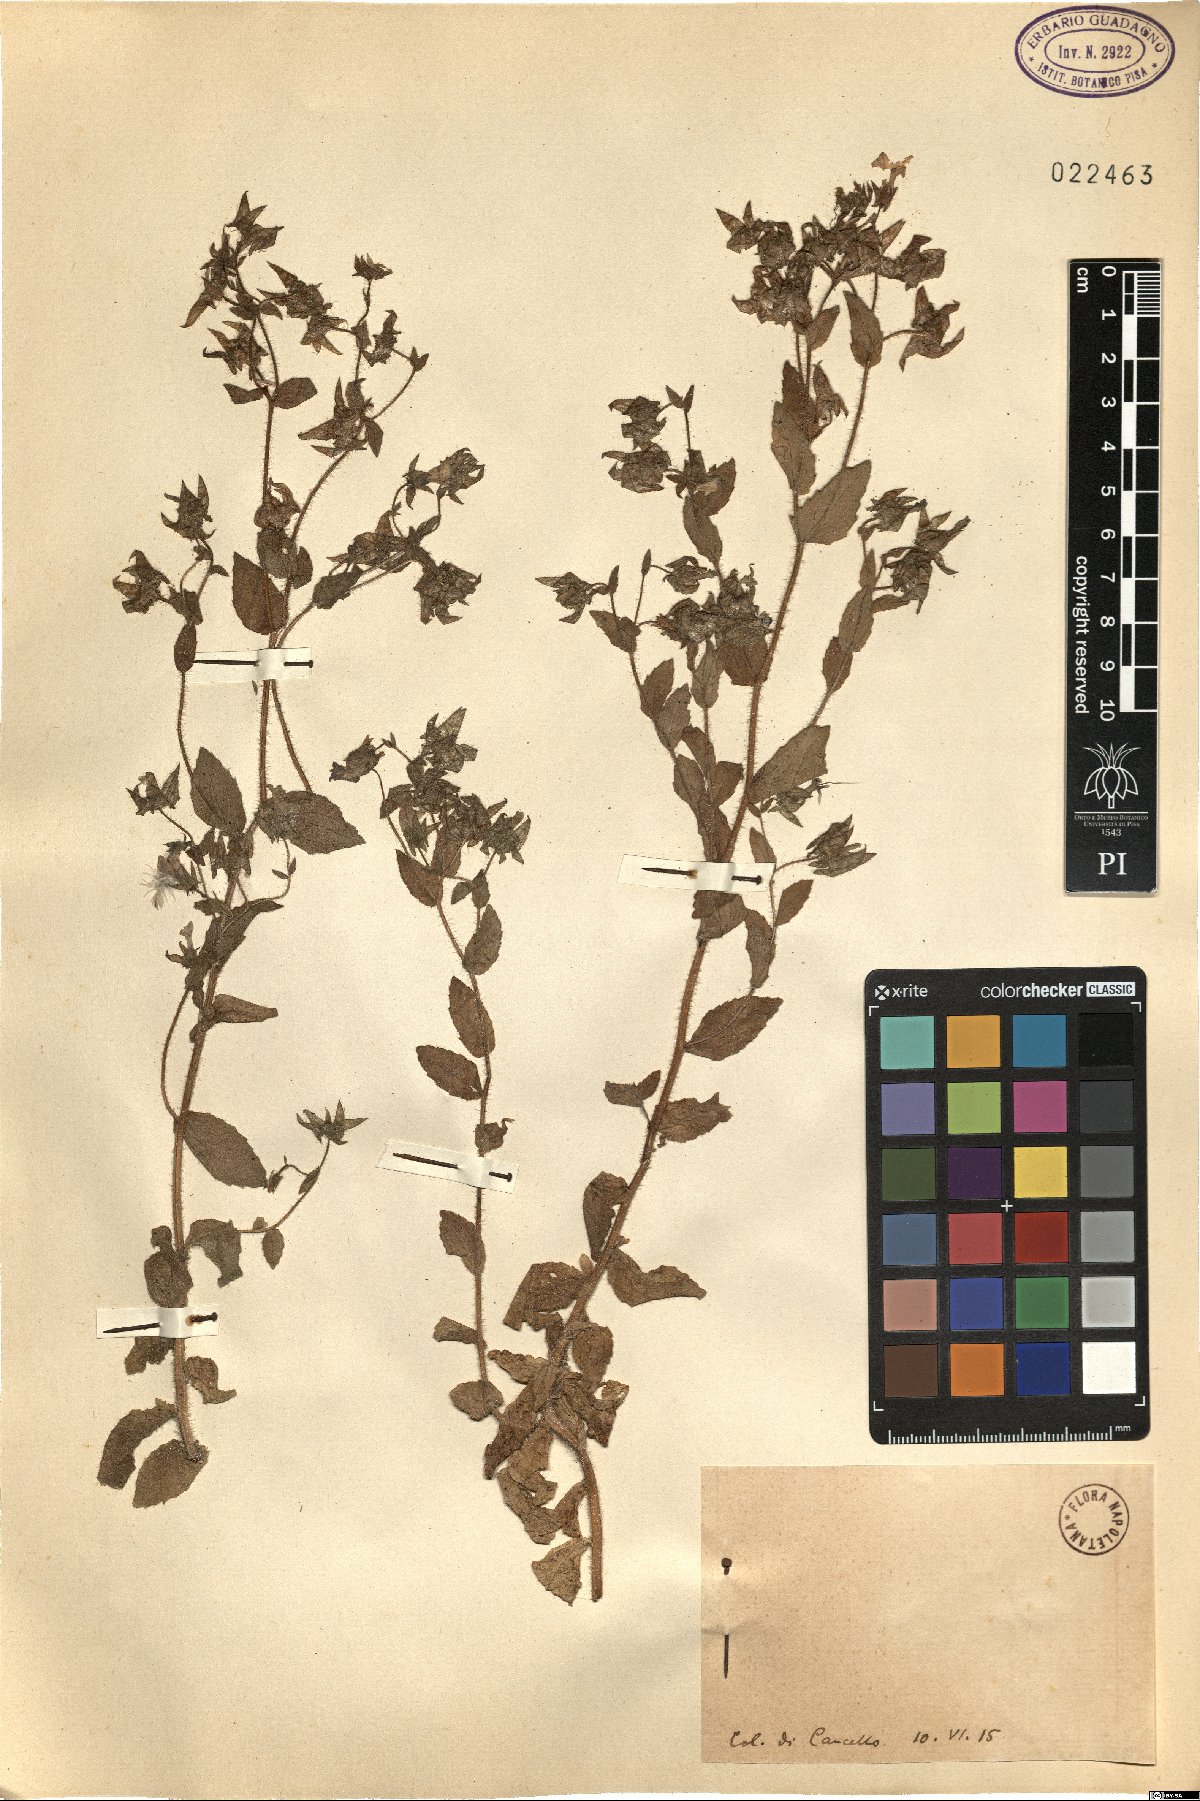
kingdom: Plantae
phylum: Tracheophyta
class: Magnoliopsida
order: Asterales
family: Campanulaceae
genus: Campanula
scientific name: Campanula
